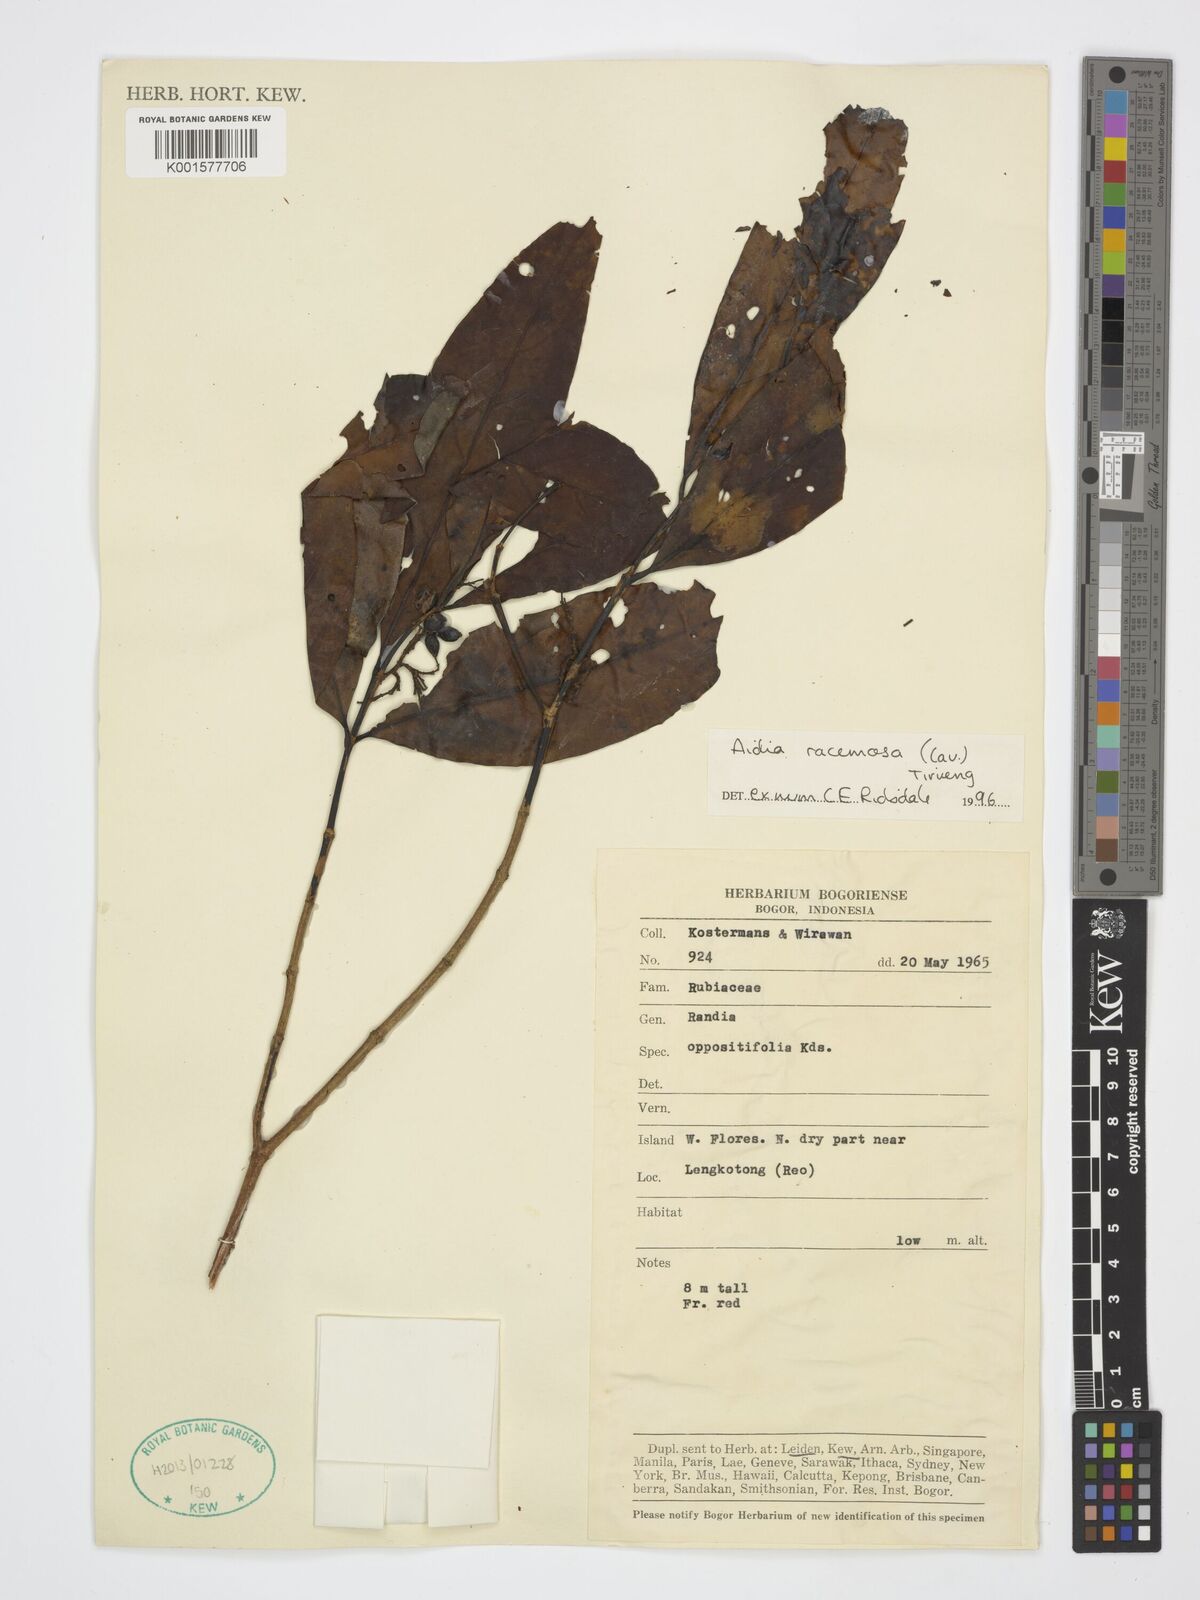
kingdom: Plantae
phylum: Tracheophyta
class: Magnoliopsida
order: Gentianales
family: Rubiaceae
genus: Aidia
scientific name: Aidia racemosa
